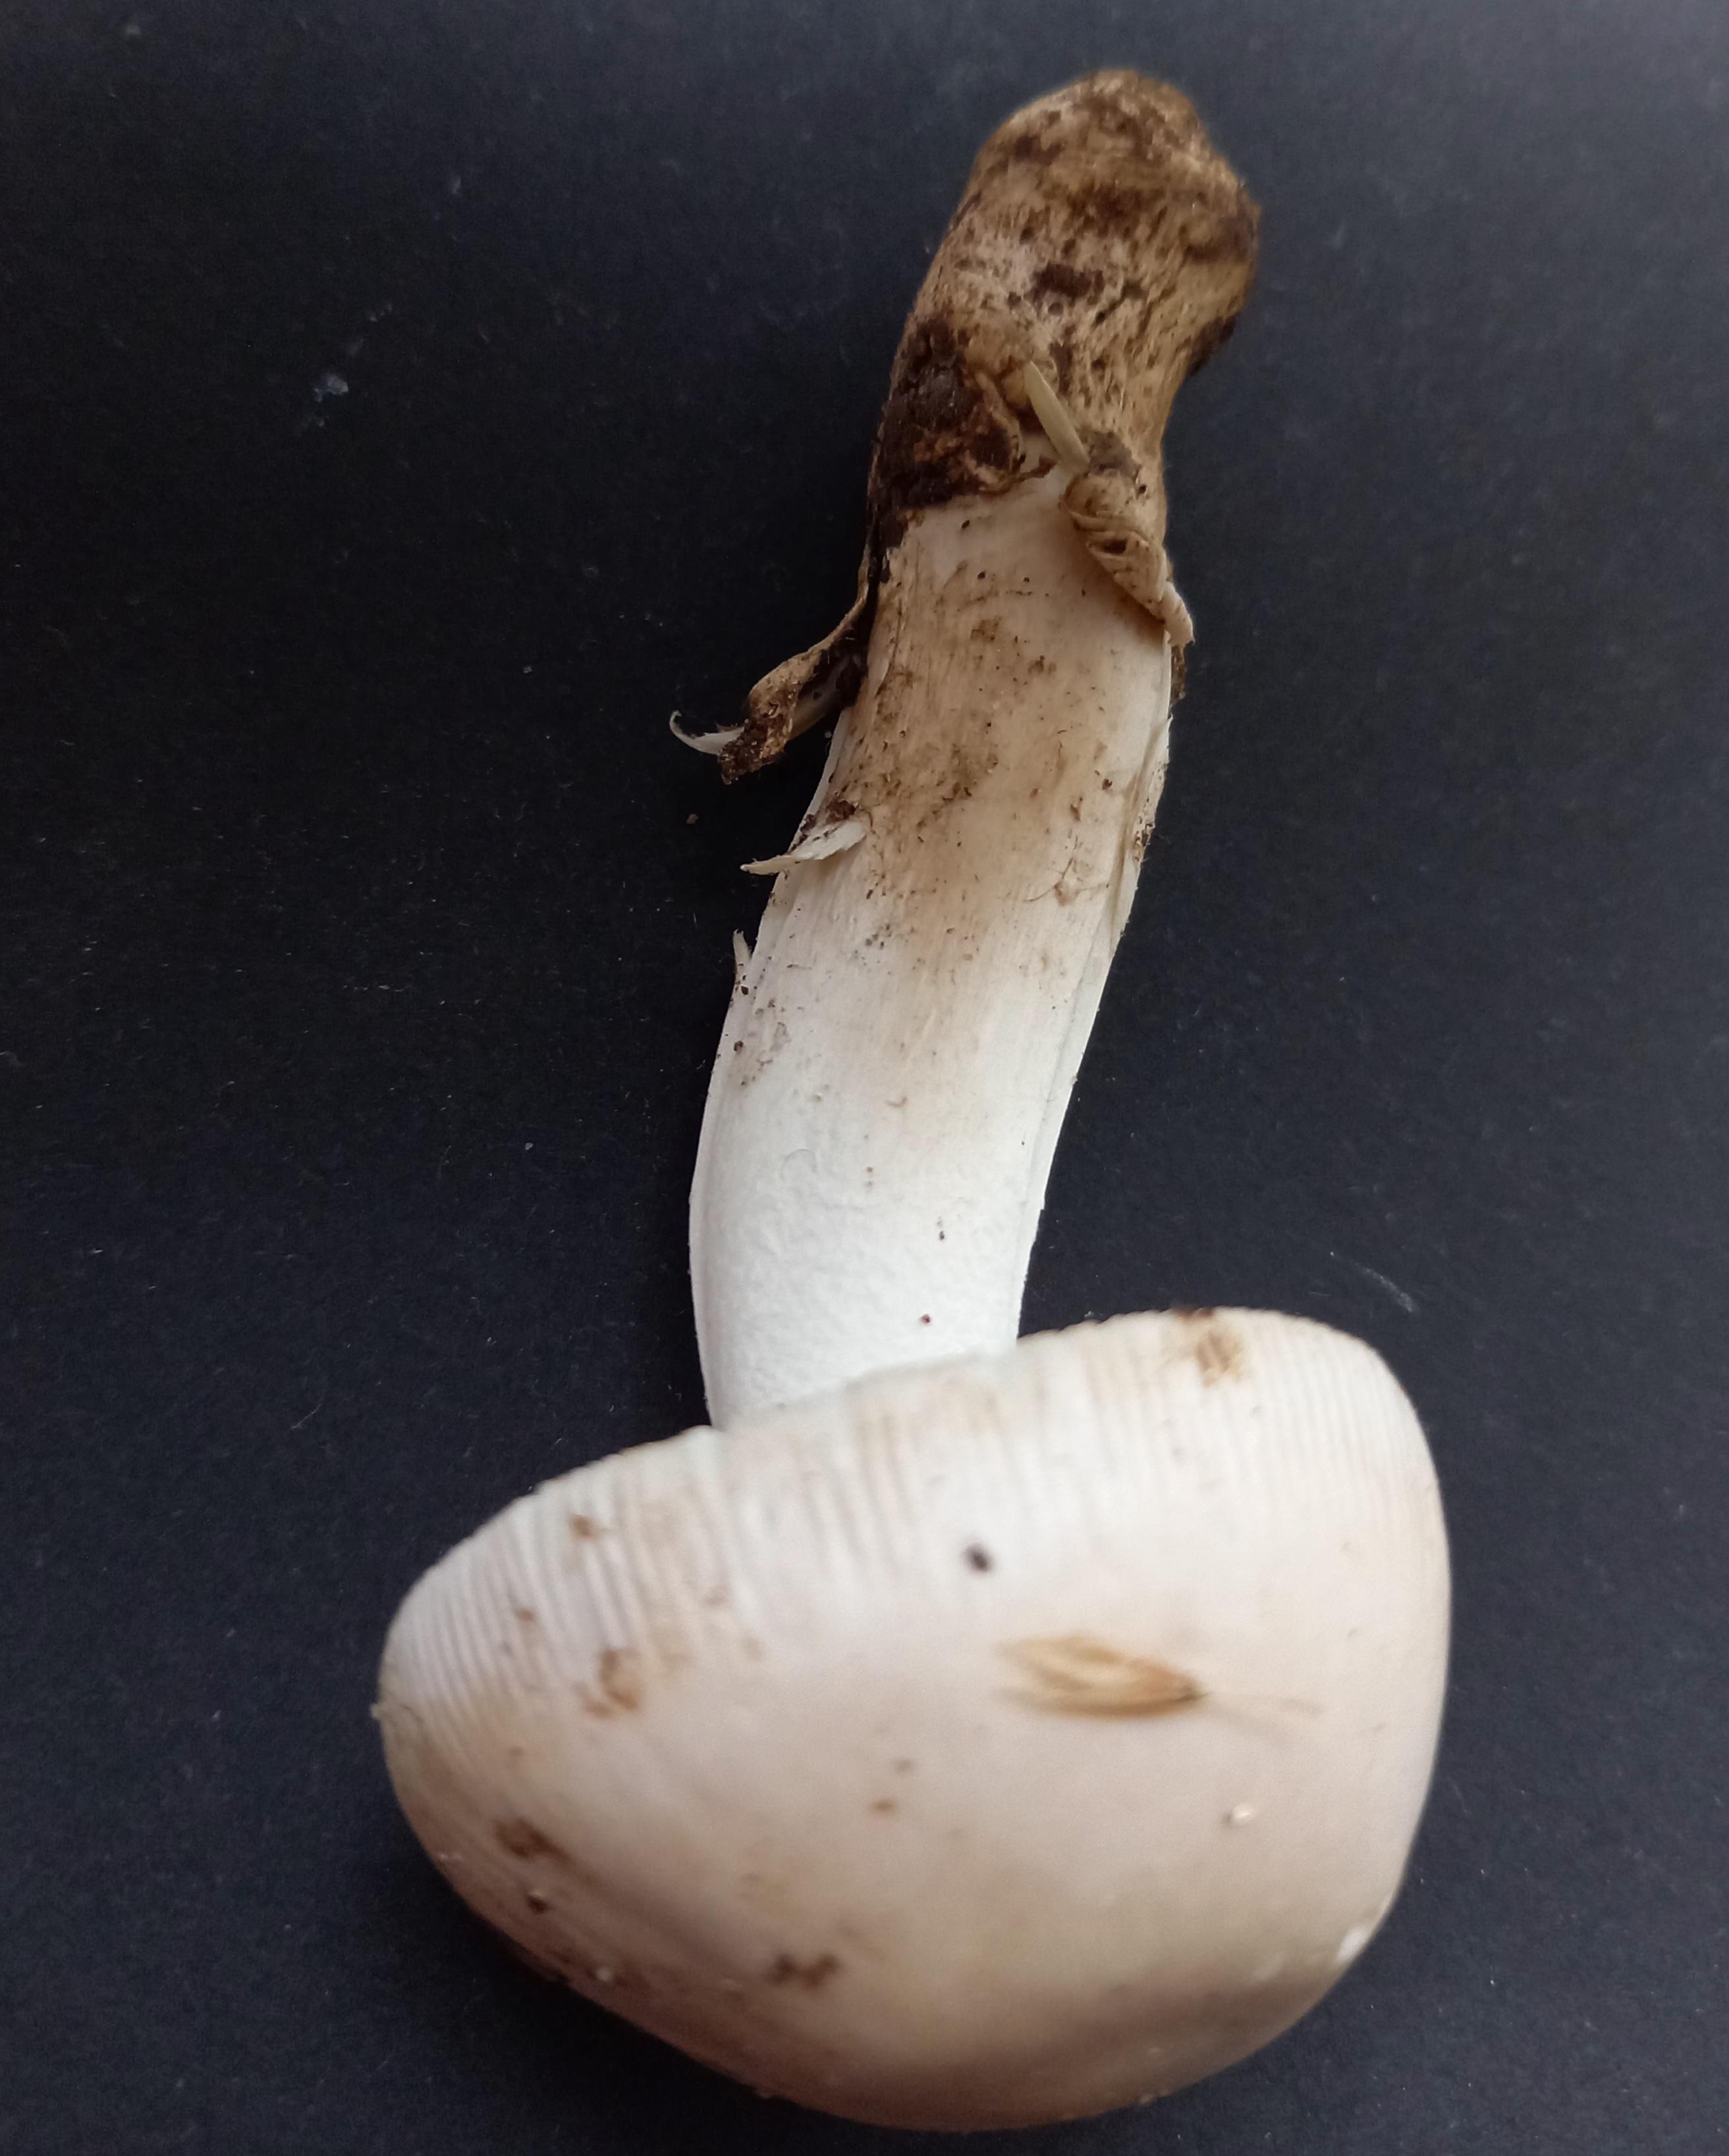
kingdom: Fungi
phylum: Basidiomycota
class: Agaricomycetes
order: Agaricales
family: Amanitaceae
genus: Amanita
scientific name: Amanita
